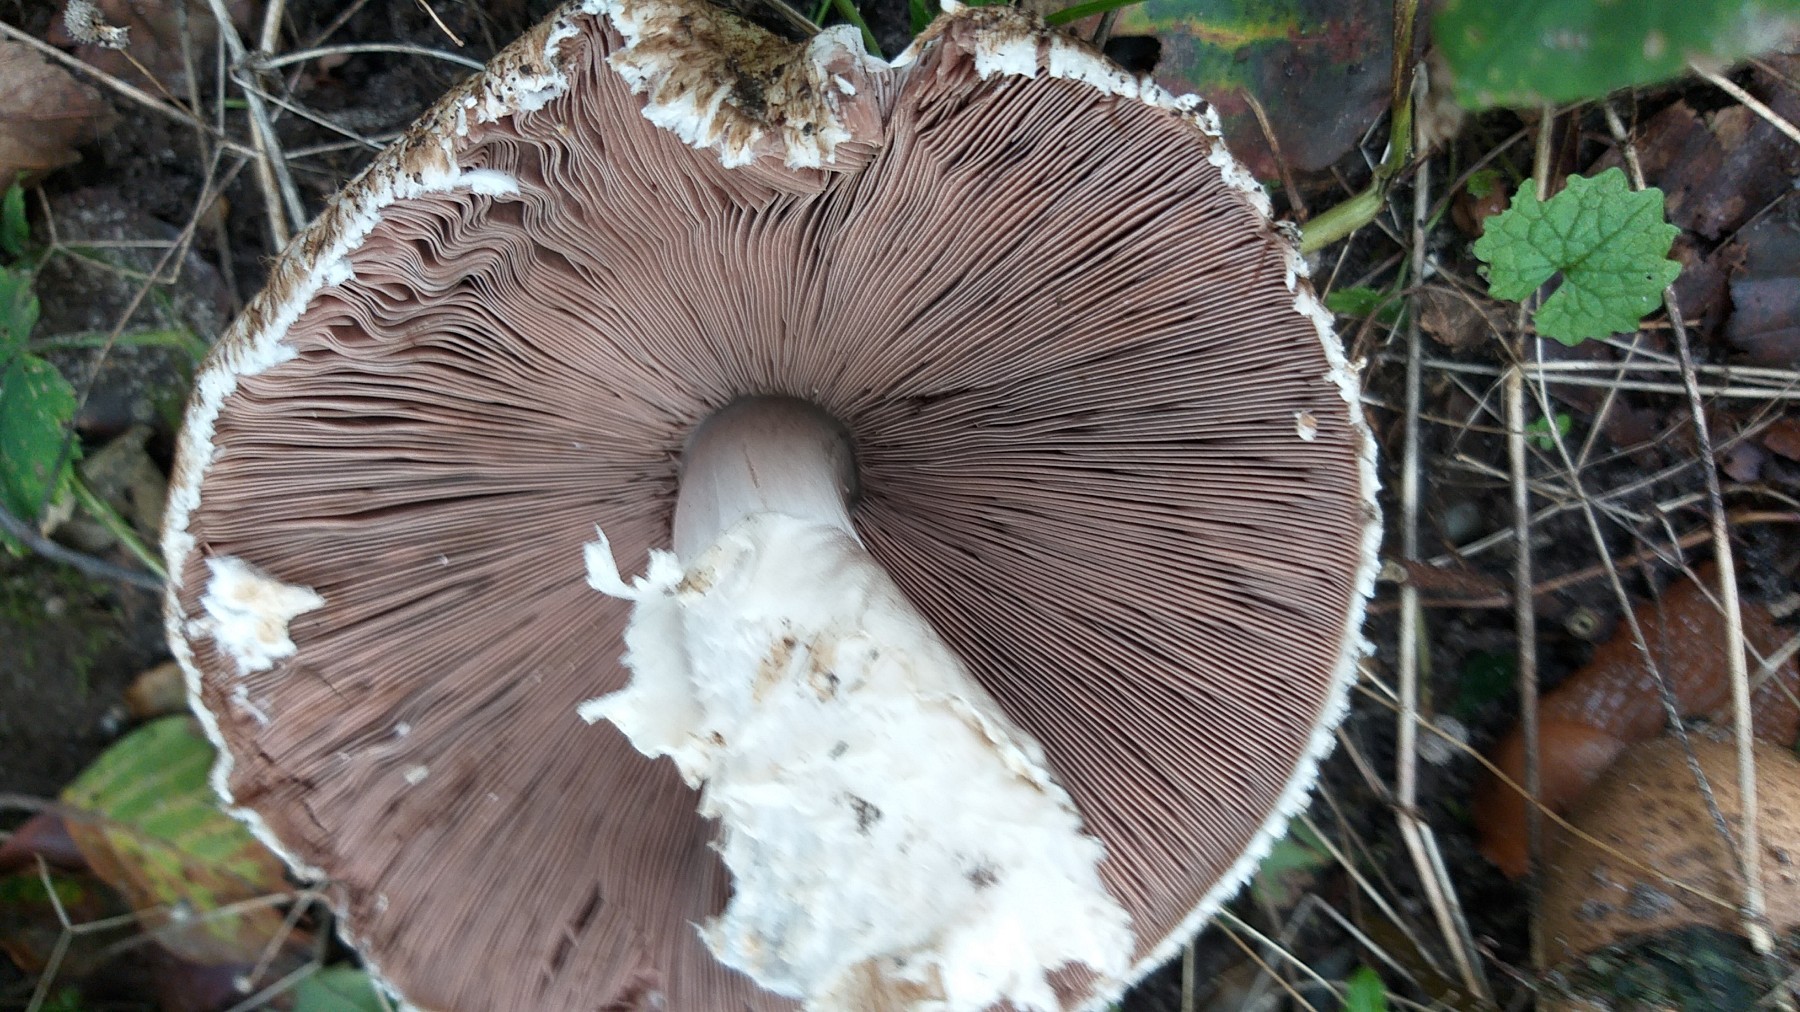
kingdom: Fungi
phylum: Basidiomycota
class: Agaricomycetes
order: Agaricales
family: Agaricaceae
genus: Agaricus
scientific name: Agaricus augustus
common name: prægtig champignon
